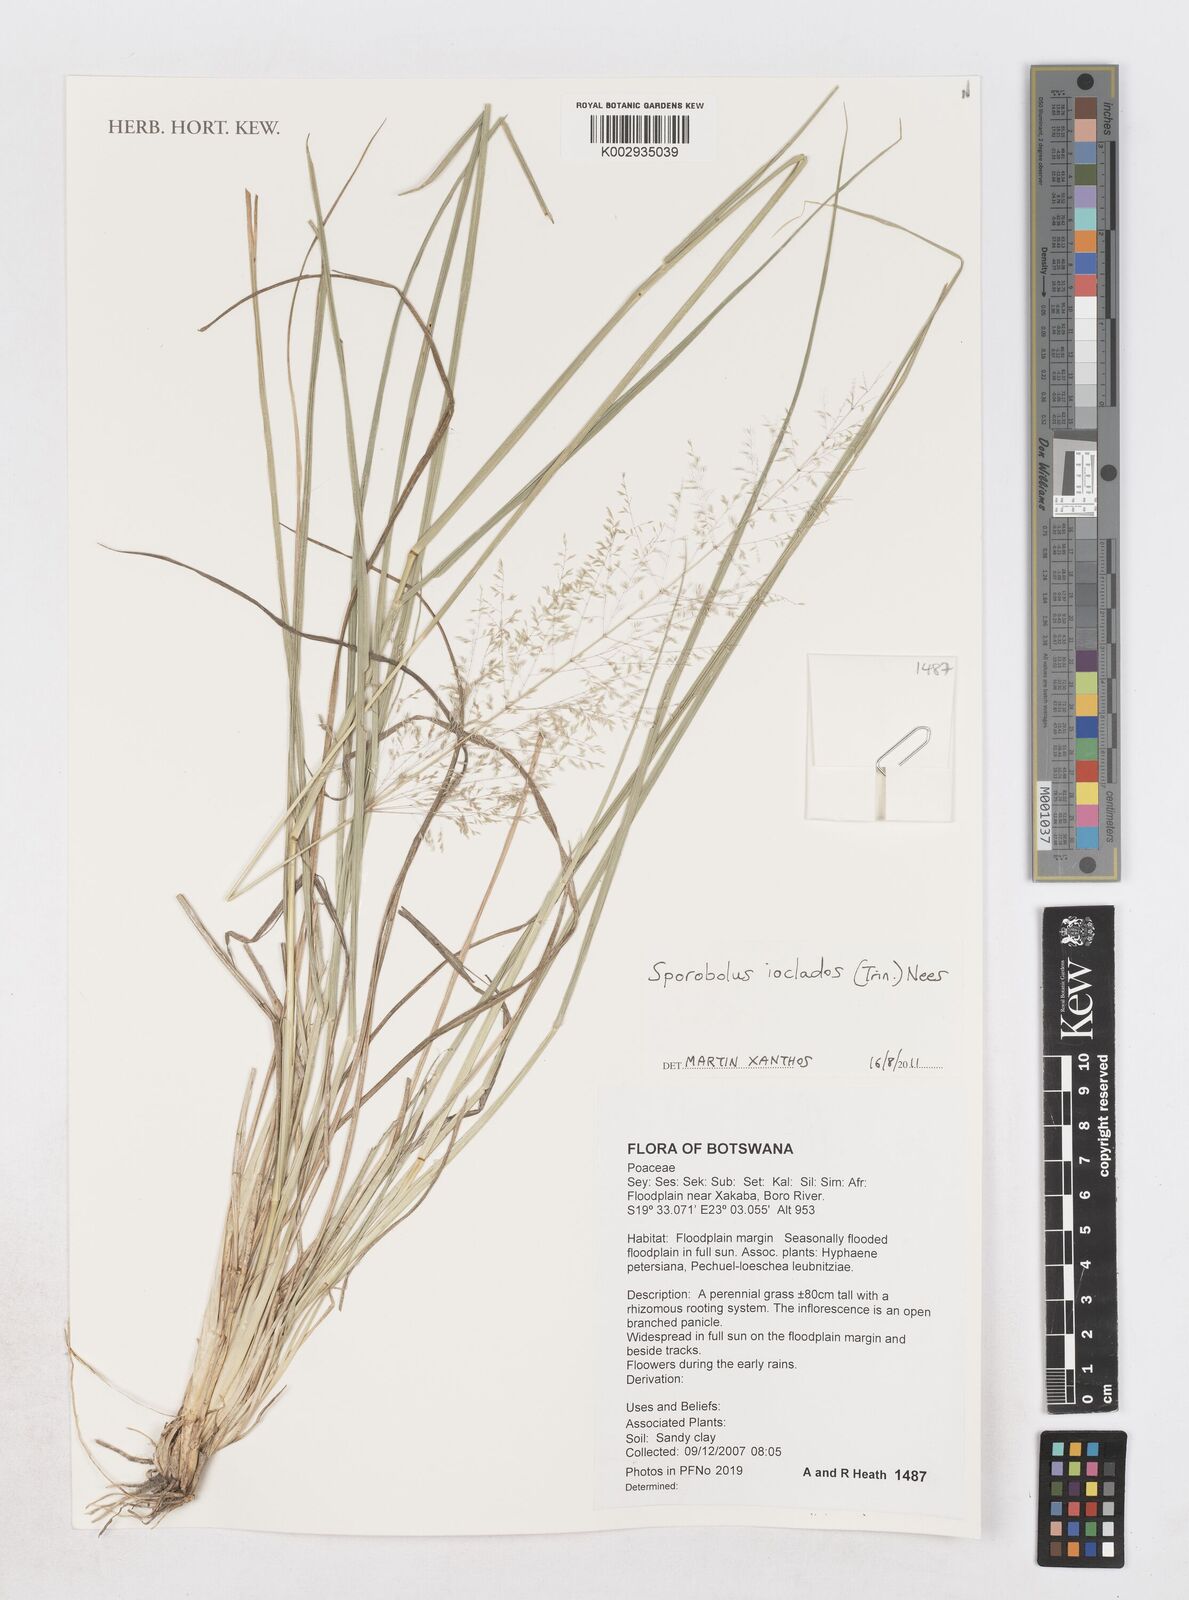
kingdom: Plantae
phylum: Tracheophyta
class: Liliopsida
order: Poales
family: Poaceae
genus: Sporobolus
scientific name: Sporobolus ioclados
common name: Pan dropseed
